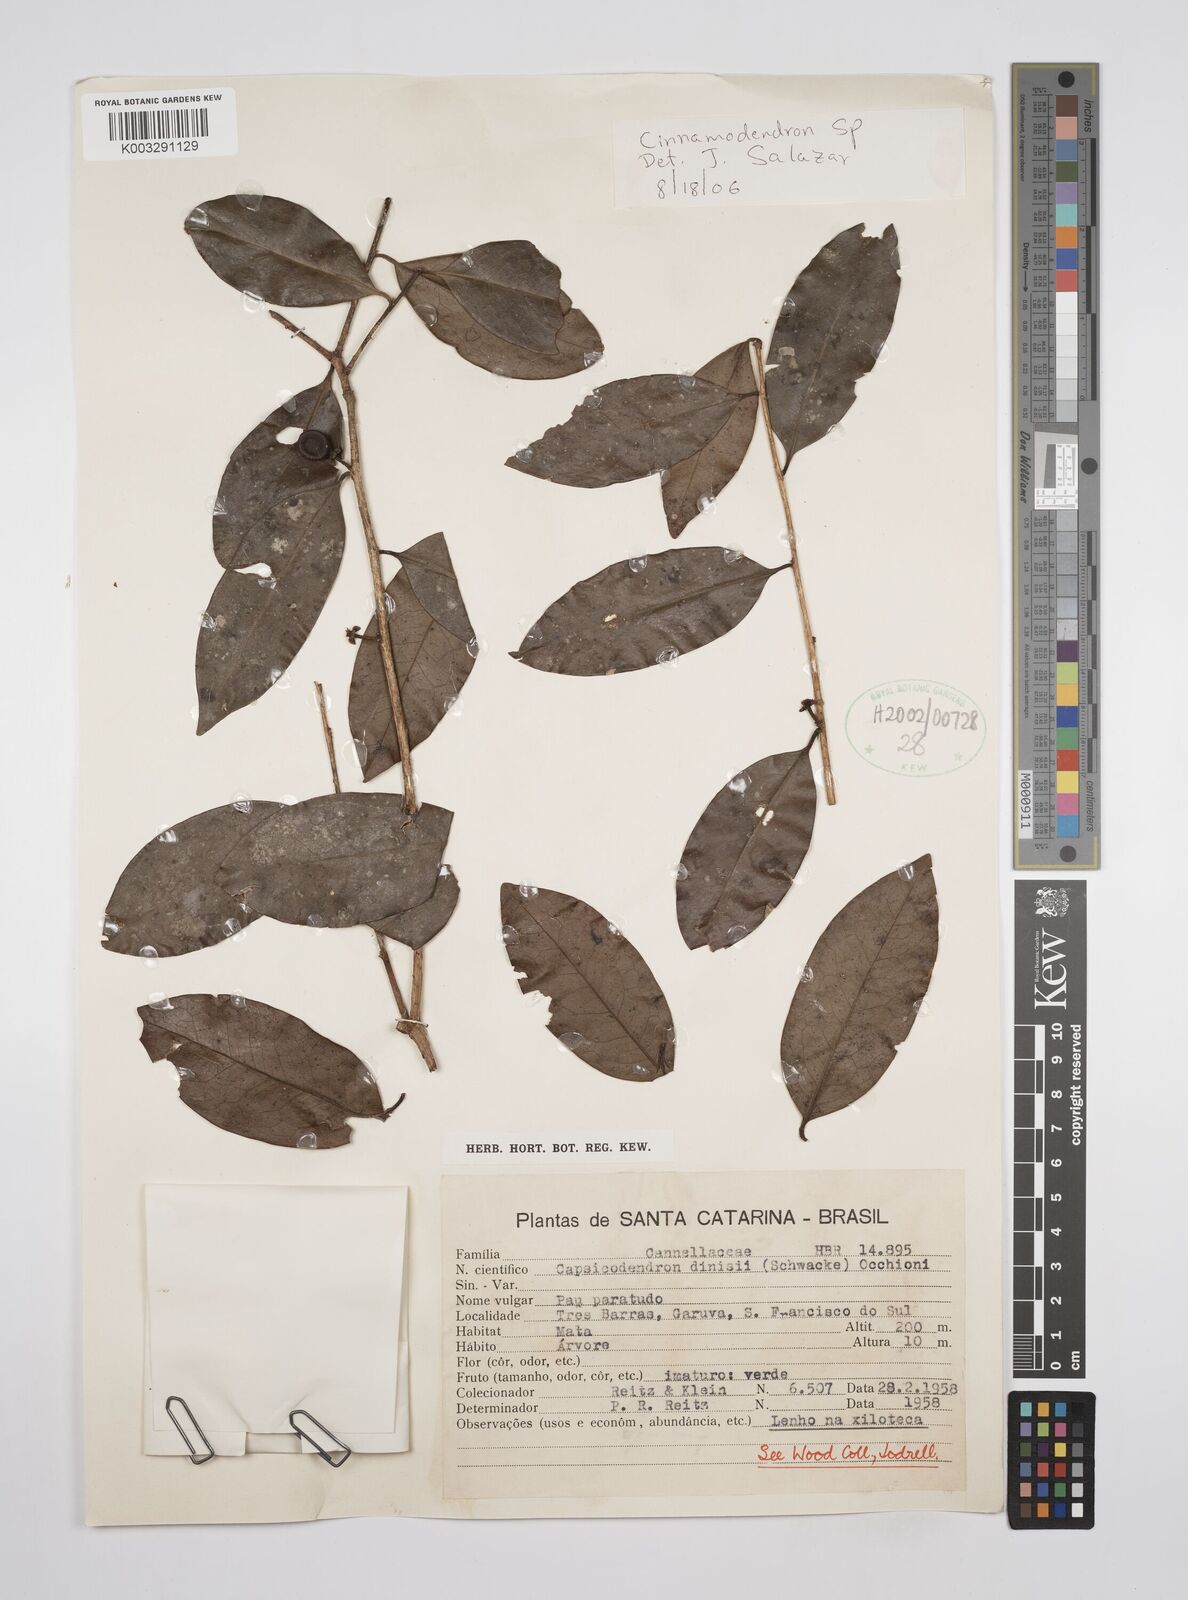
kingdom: Plantae
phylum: Tracheophyta
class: Magnoliopsida
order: Canellales
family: Canellaceae
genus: Cinnamodendron
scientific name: Cinnamodendron dinisii
